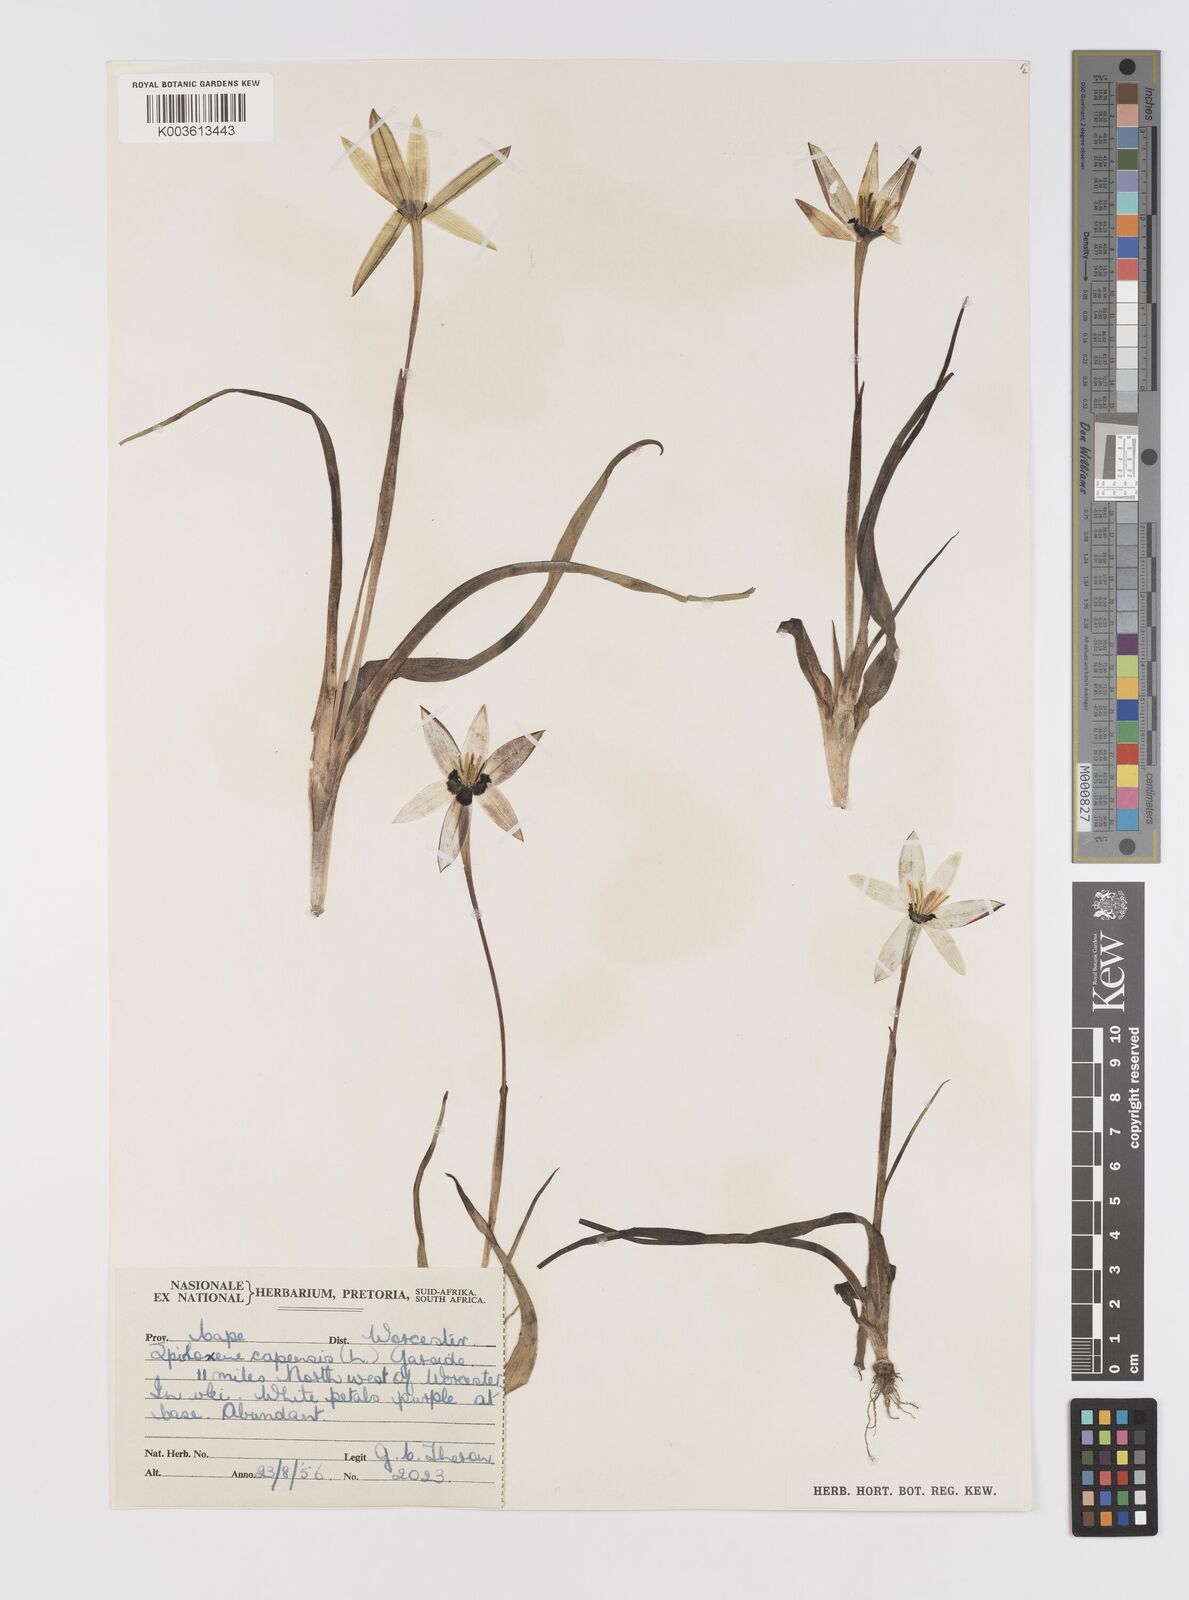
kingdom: Plantae
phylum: Tracheophyta
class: Liliopsida
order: Asparagales
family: Hypoxidaceae
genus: Pauridia
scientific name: Pauridia capensis
